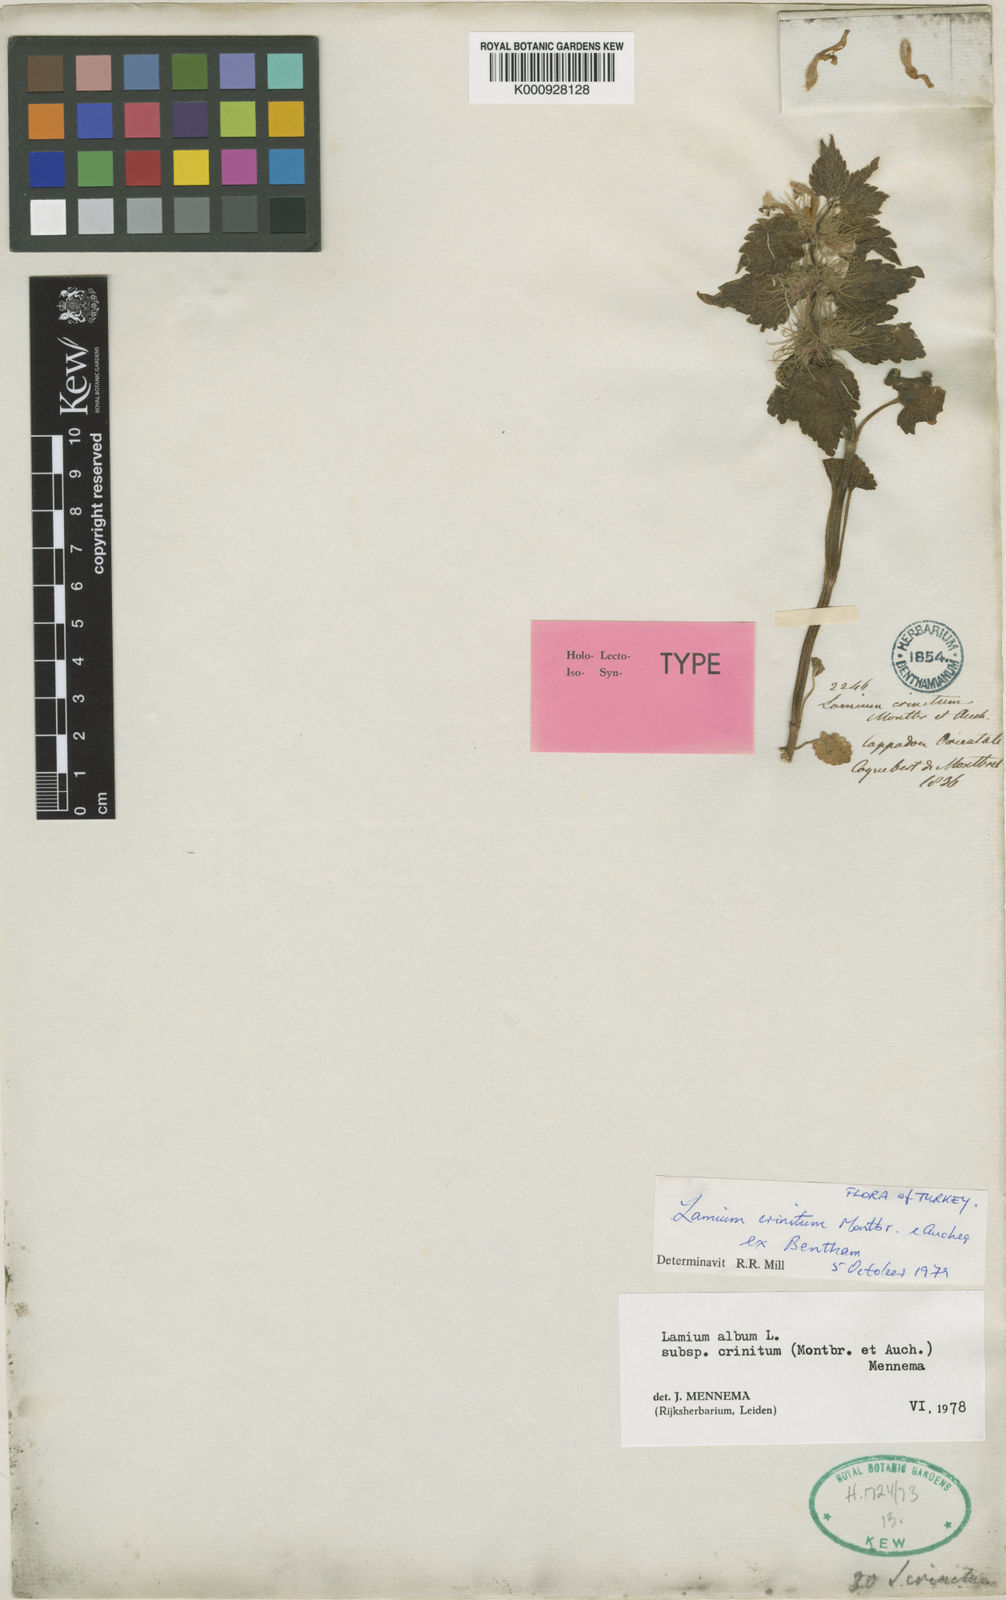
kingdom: Plantae
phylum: Tracheophyta
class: Magnoliopsida
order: Lamiales
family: Lamiaceae
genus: Lamium
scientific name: Lamium album
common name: White dead-nettle
